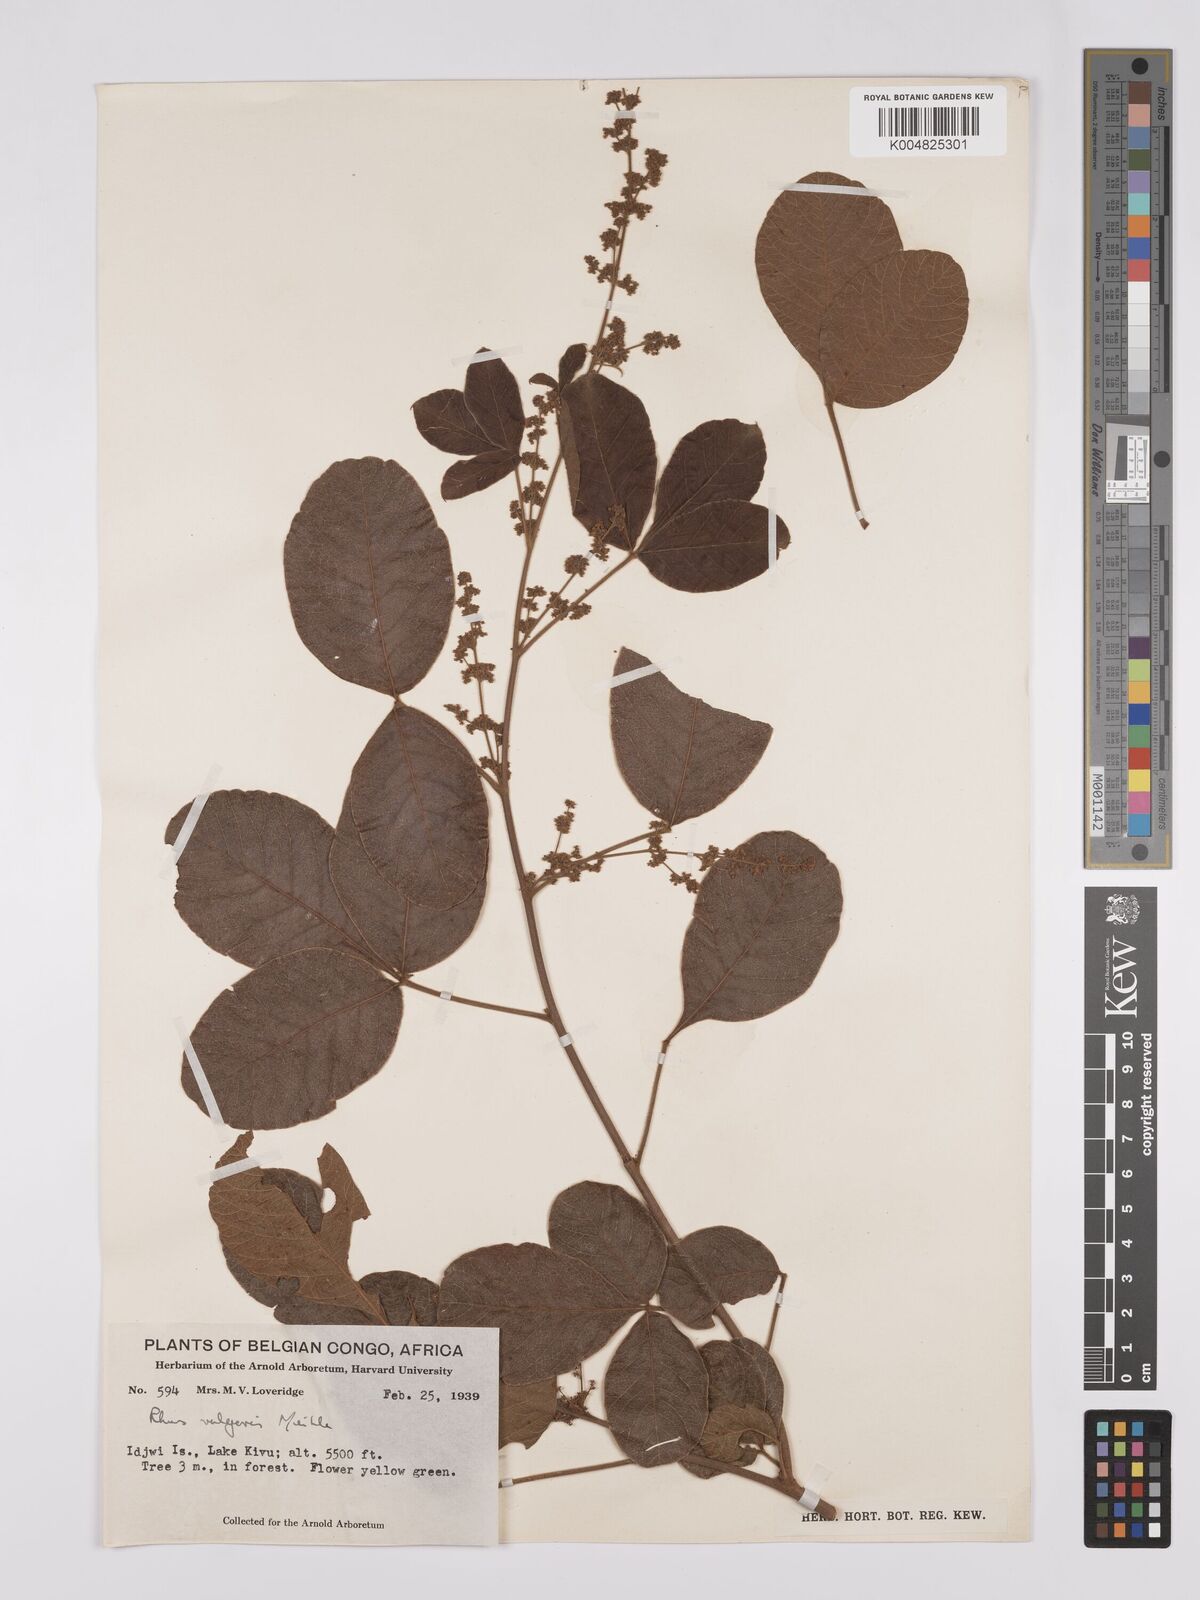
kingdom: Plantae
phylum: Tracheophyta
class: Magnoliopsida
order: Sapindales
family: Anacardiaceae
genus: Rhus
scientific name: Rhus
